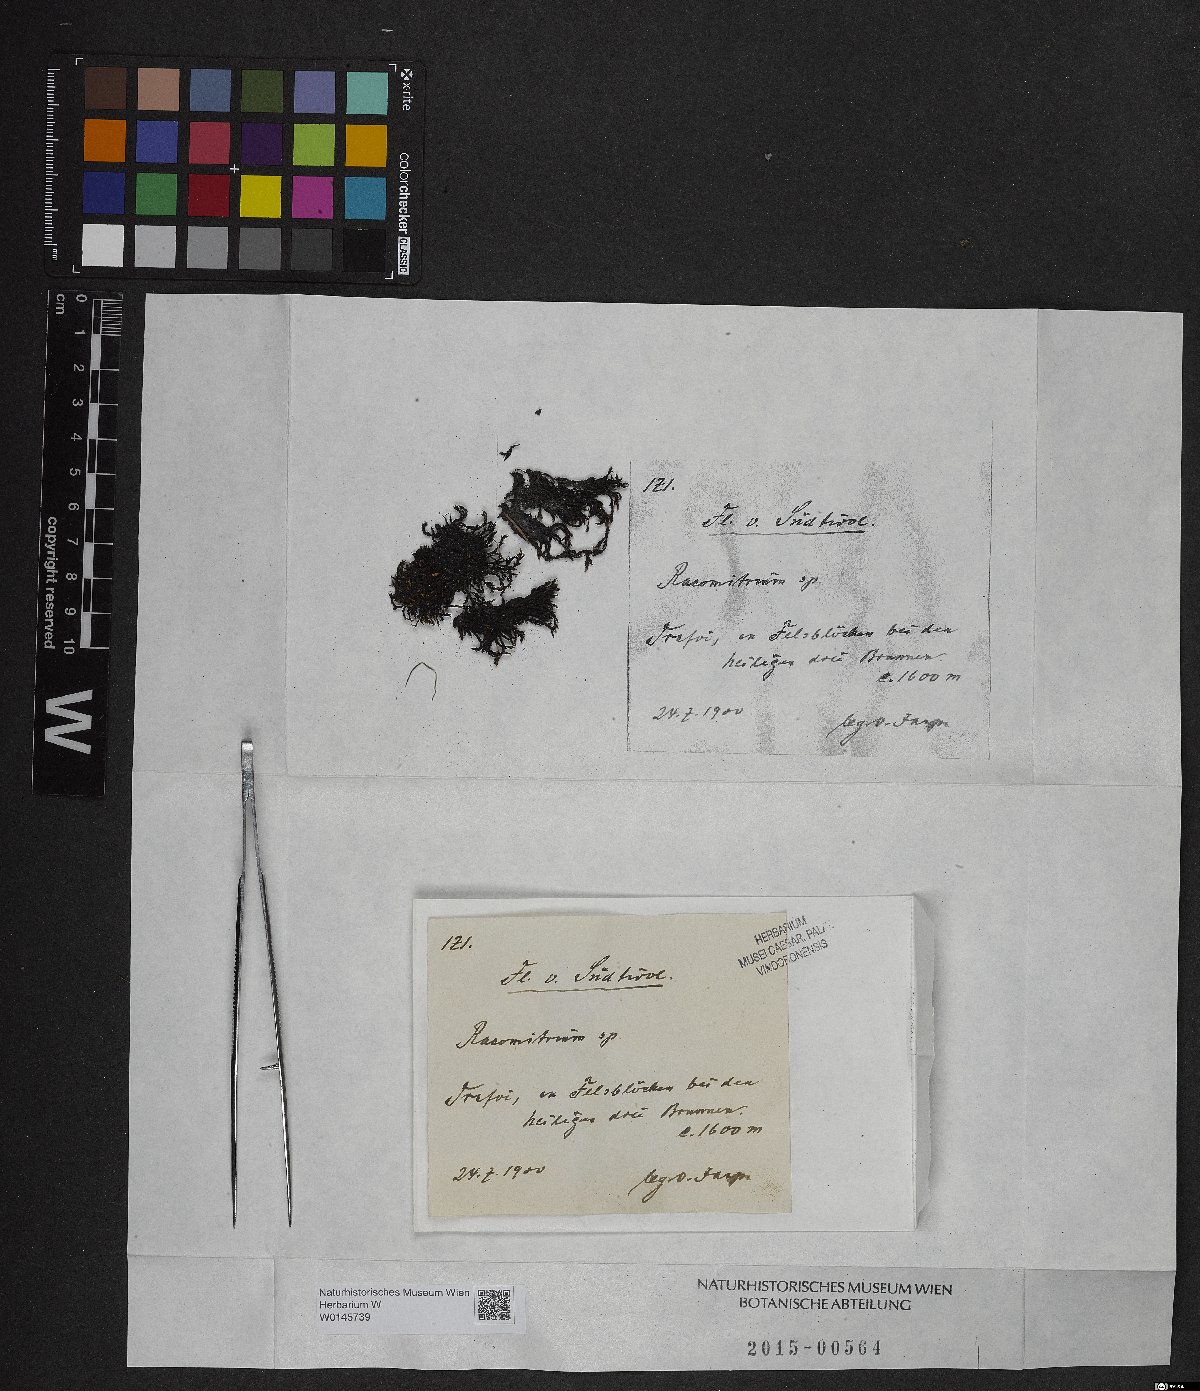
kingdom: Plantae
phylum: Bryophyta
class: Bryopsida
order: Grimmiales
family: Grimmiaceae
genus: Racomitrium
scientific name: Racomitrium
